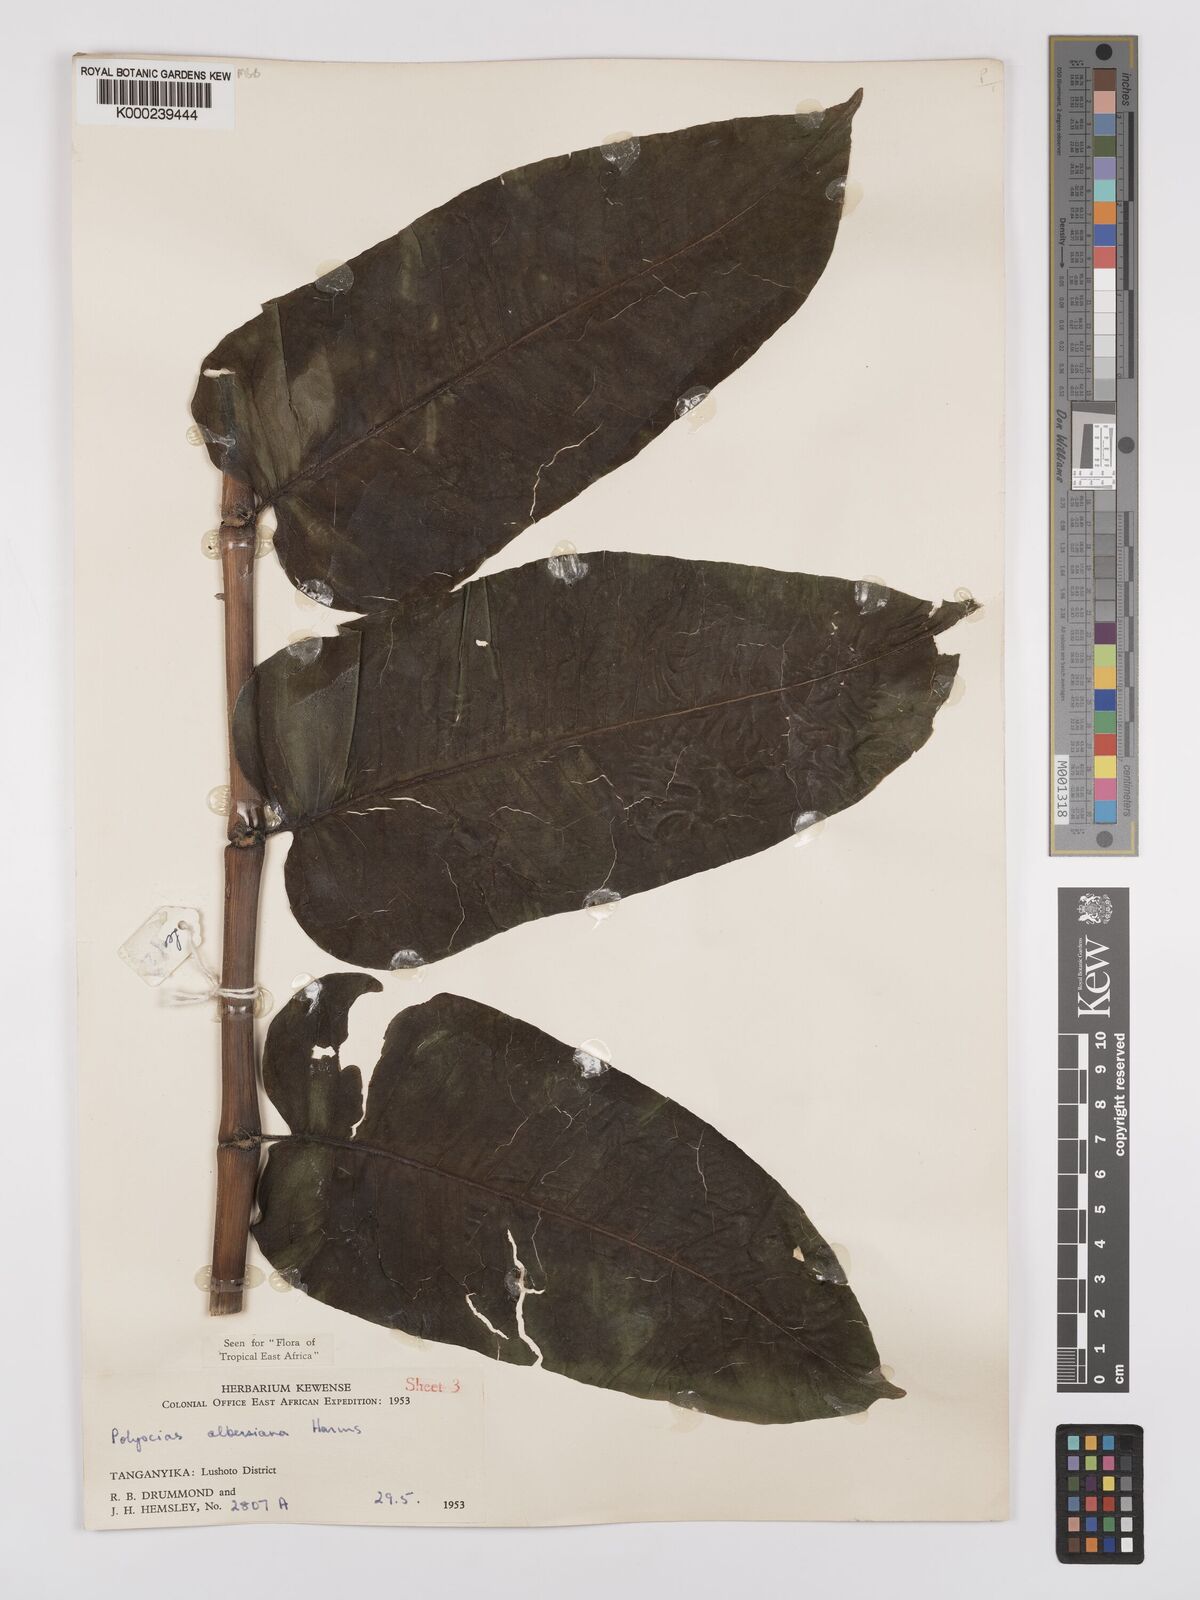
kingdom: Plantae
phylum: Tracheophyta
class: Magnoliopsida
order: Apiales
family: Araliaceae
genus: Polyscias
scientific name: Polyscias albersiana
